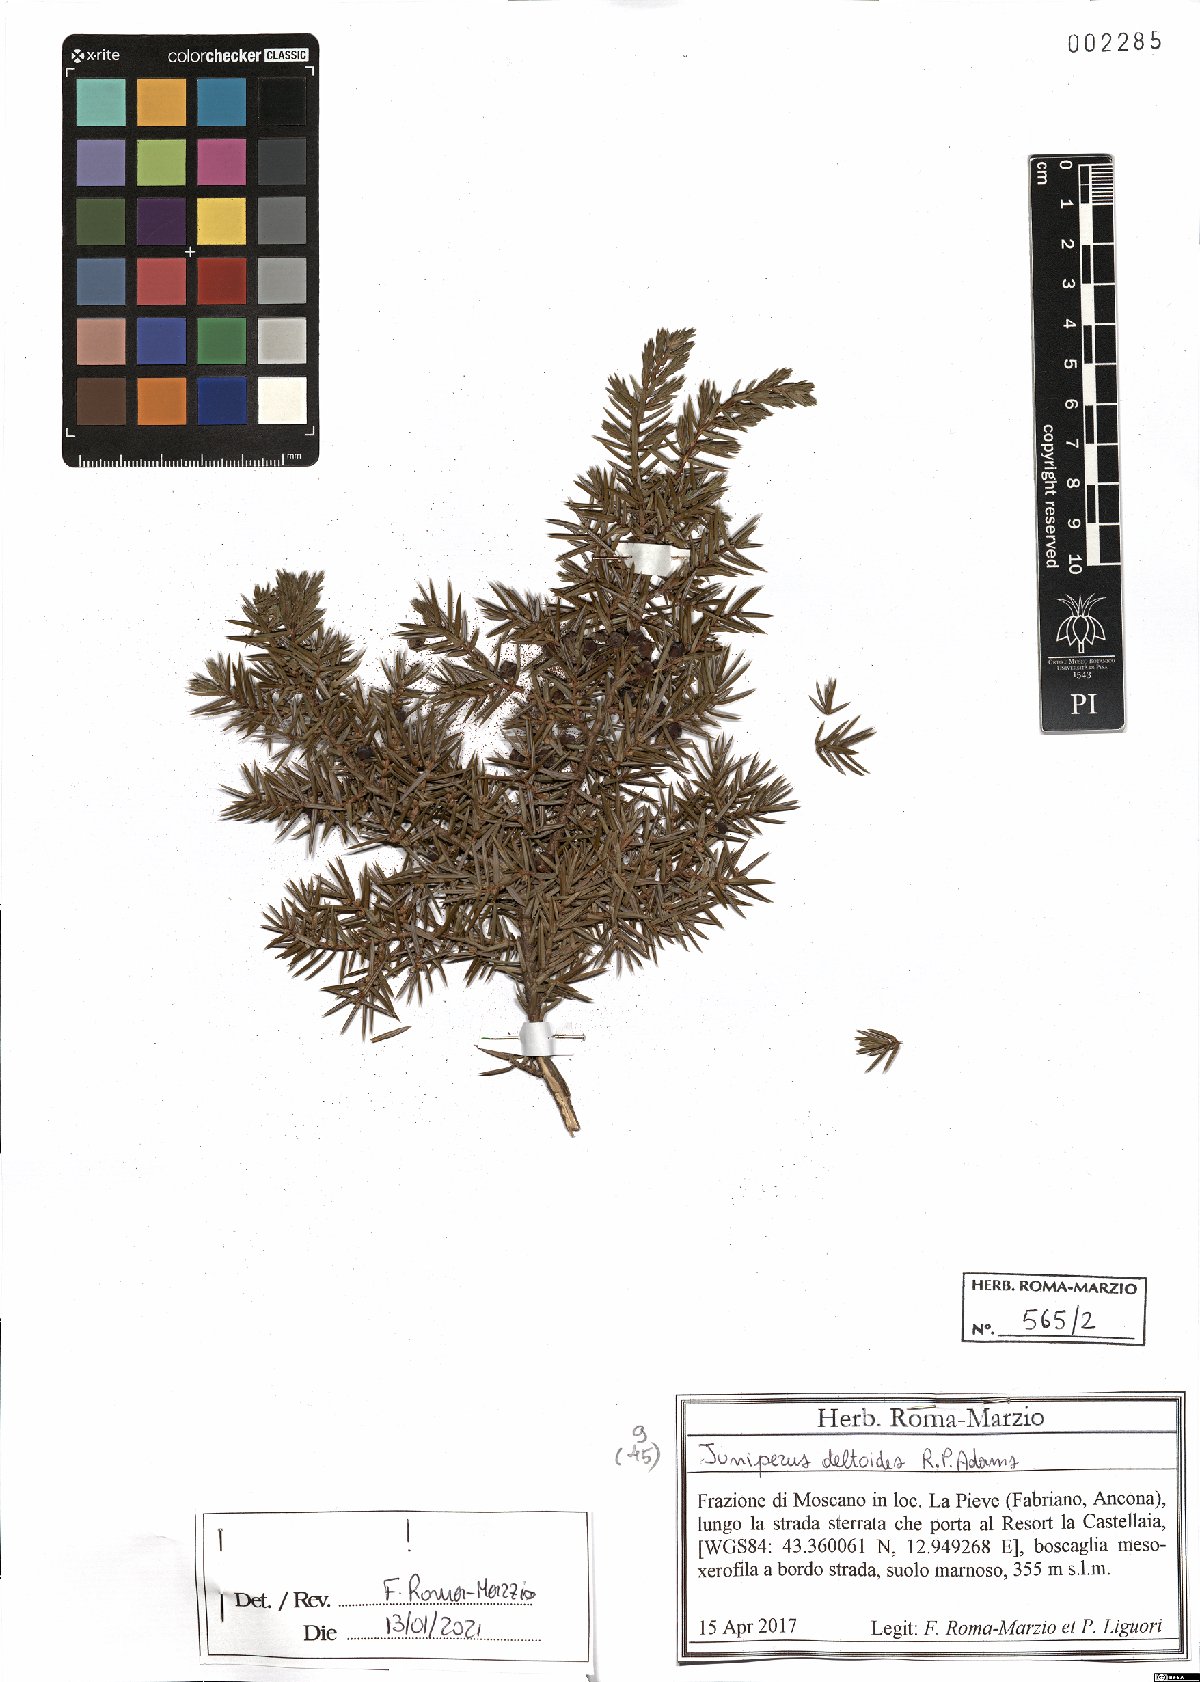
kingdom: Plantae
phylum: Tracheophyta
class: Pinopsida
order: Pinales
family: Cupressaceae
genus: Juniperus
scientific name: Juniperus oxycedrus
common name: Prickly juniper
